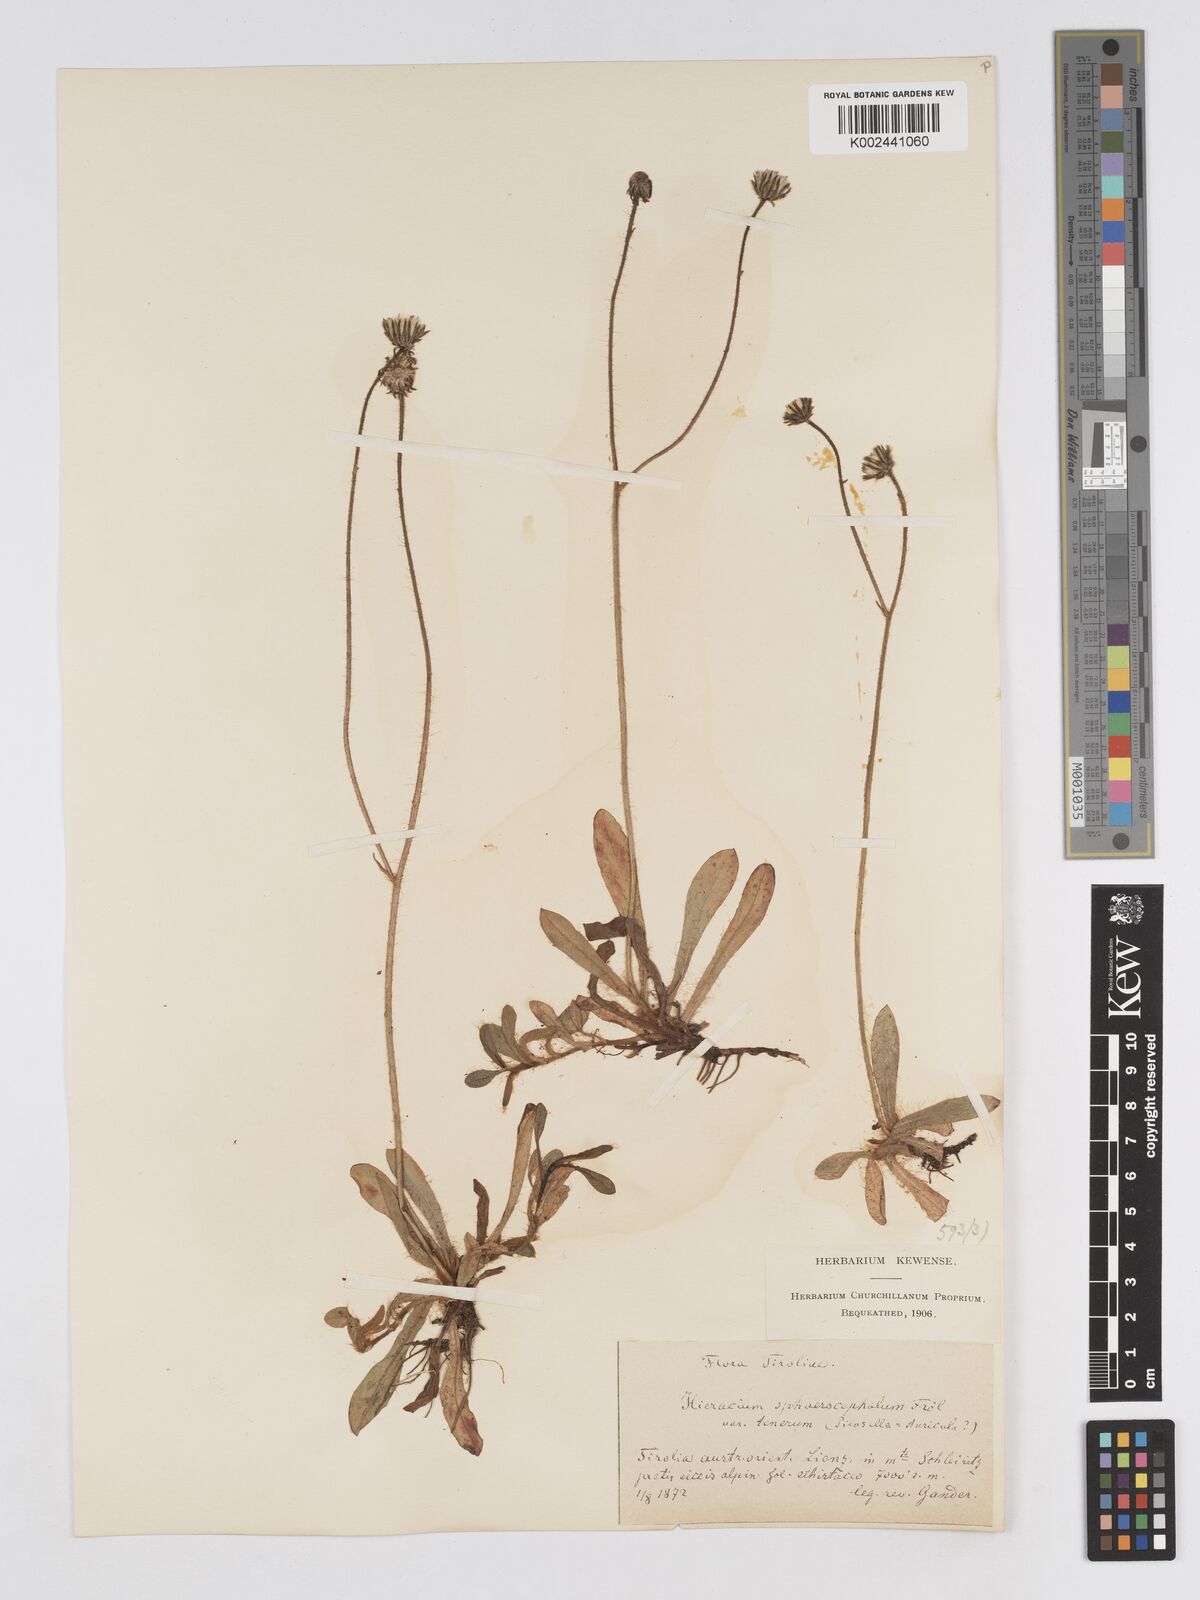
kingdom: Plantae
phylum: Tracheophyta
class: Magnoliopsida
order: Asterales
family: Asteraceae
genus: Pilosella
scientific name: Pilosella sphaerocephala
